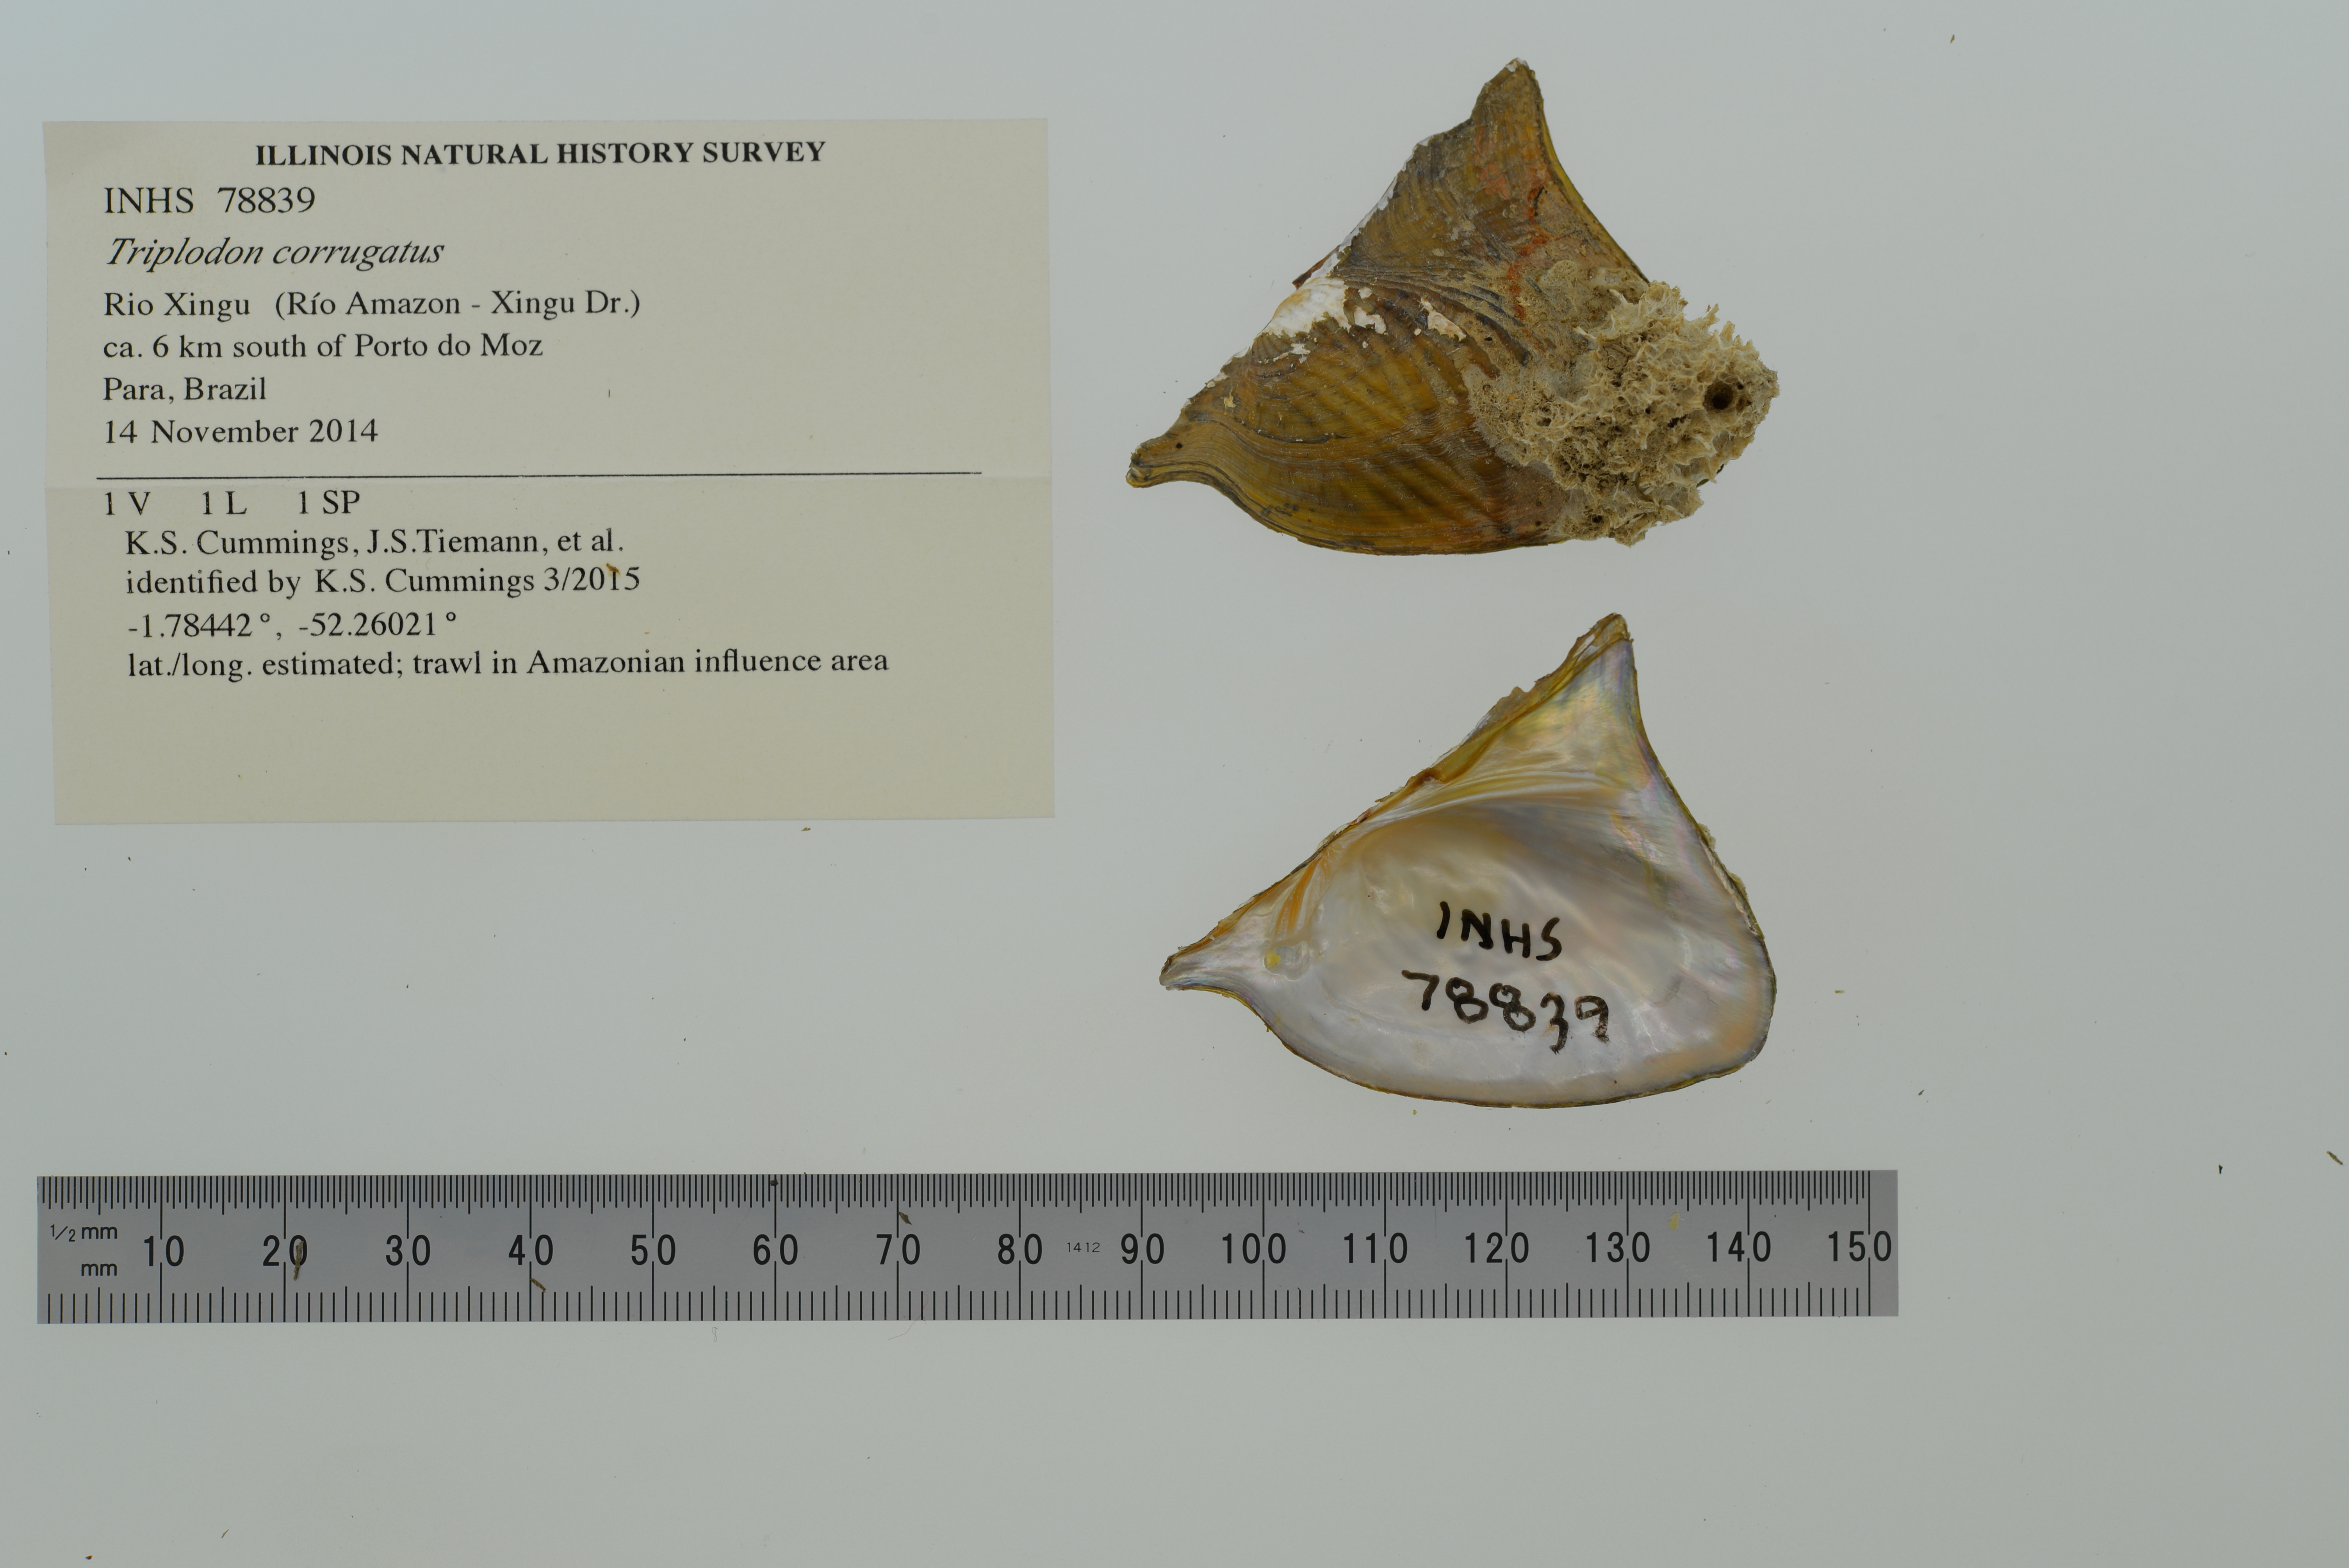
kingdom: Animalia
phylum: Mollusca
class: Bivalvia
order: Unionida
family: Hyriidae
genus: Triplodon
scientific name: Triplodon corrugatus
